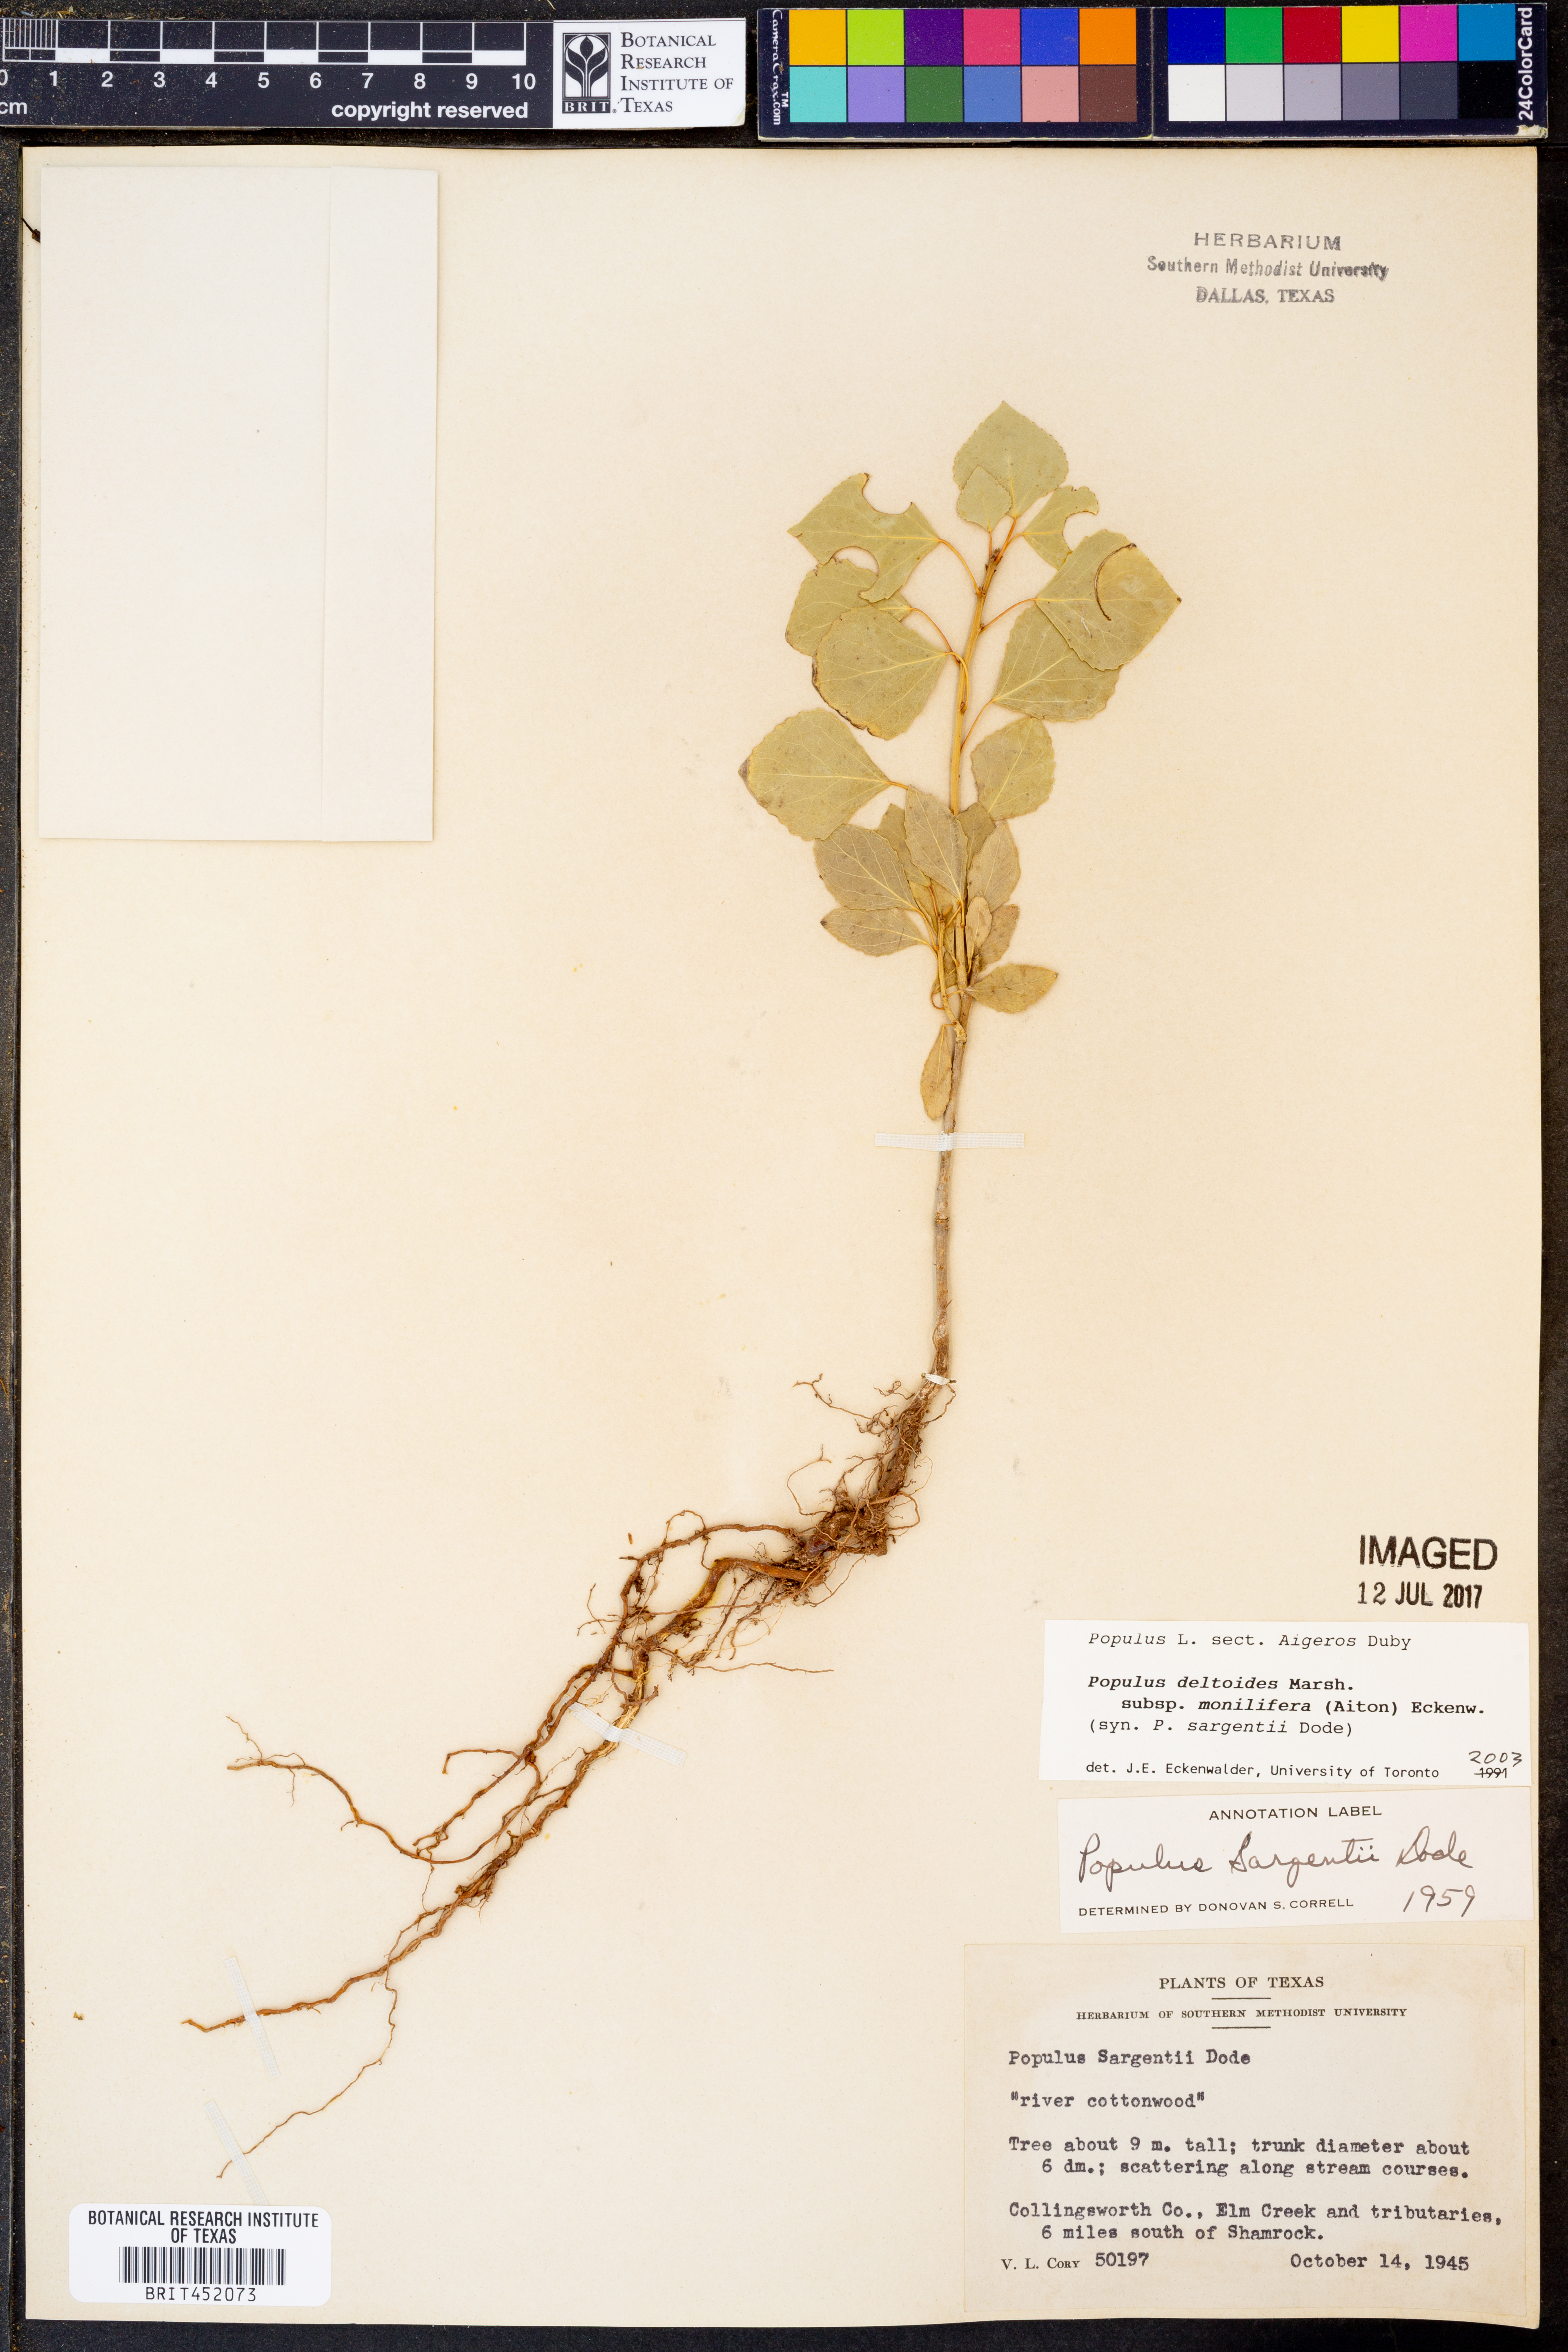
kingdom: Plantae
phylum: Tracheophyta
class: Magnoliopsida
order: Malpighiales
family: Salicaceae
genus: Populus
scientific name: Populus deltoides
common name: Eastern cottonwood
